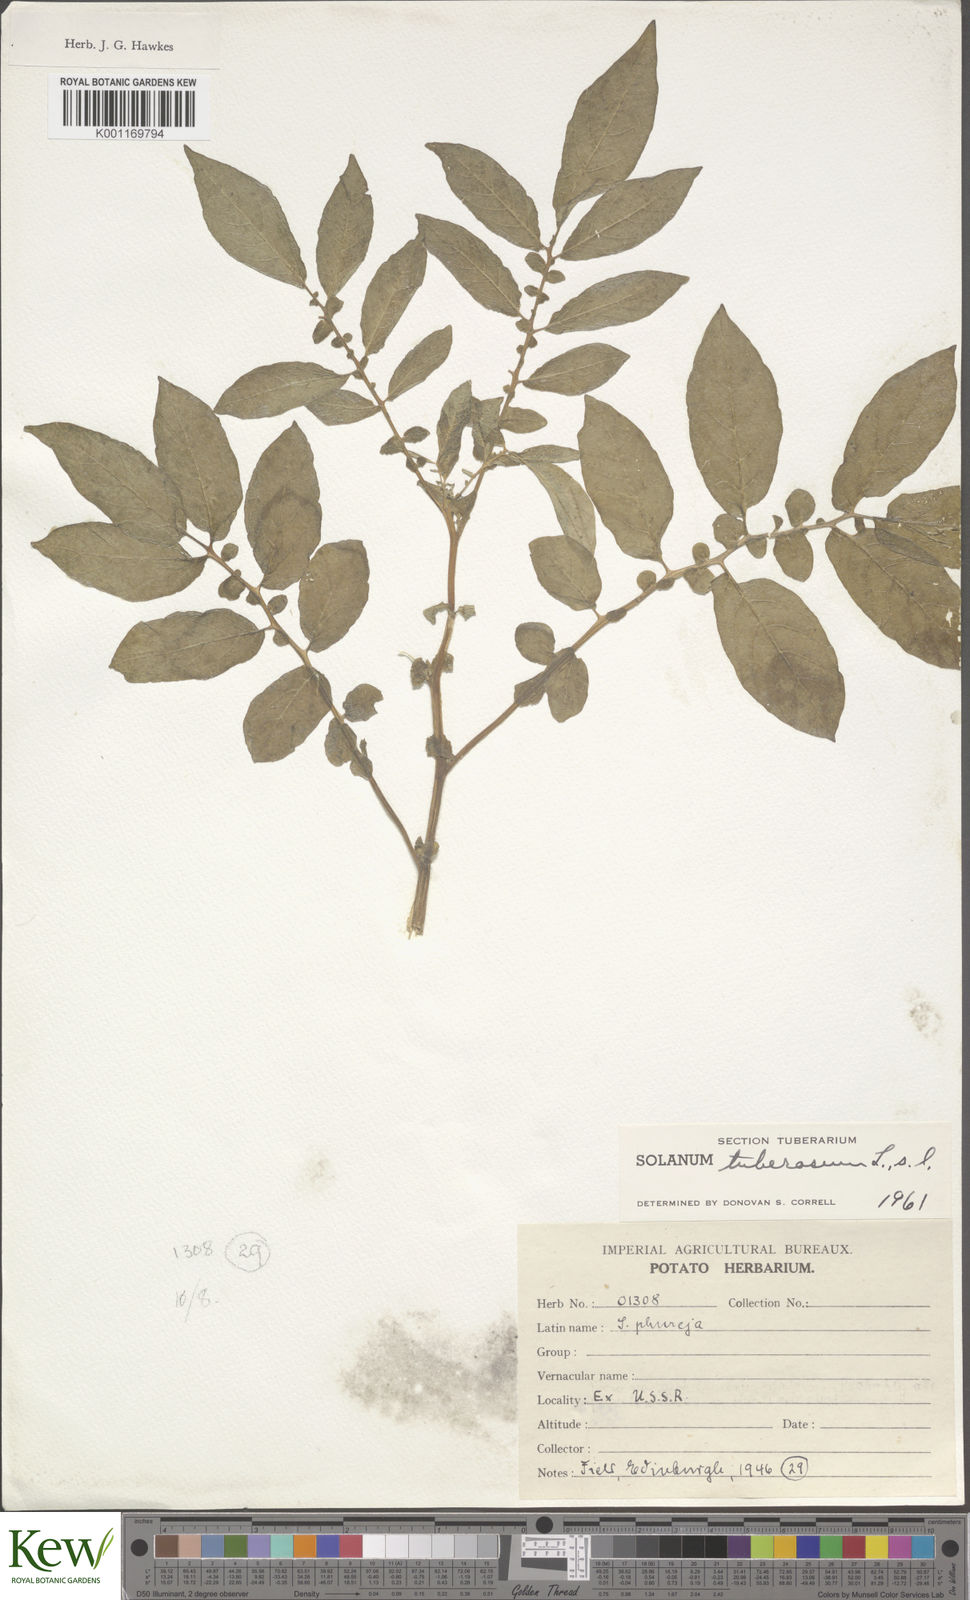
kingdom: Plantae
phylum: Tracheophyta
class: Magnoliopsida
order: Solanales
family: Solanaceae
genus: Solanum
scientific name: Solanum tuberosum
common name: Potato
